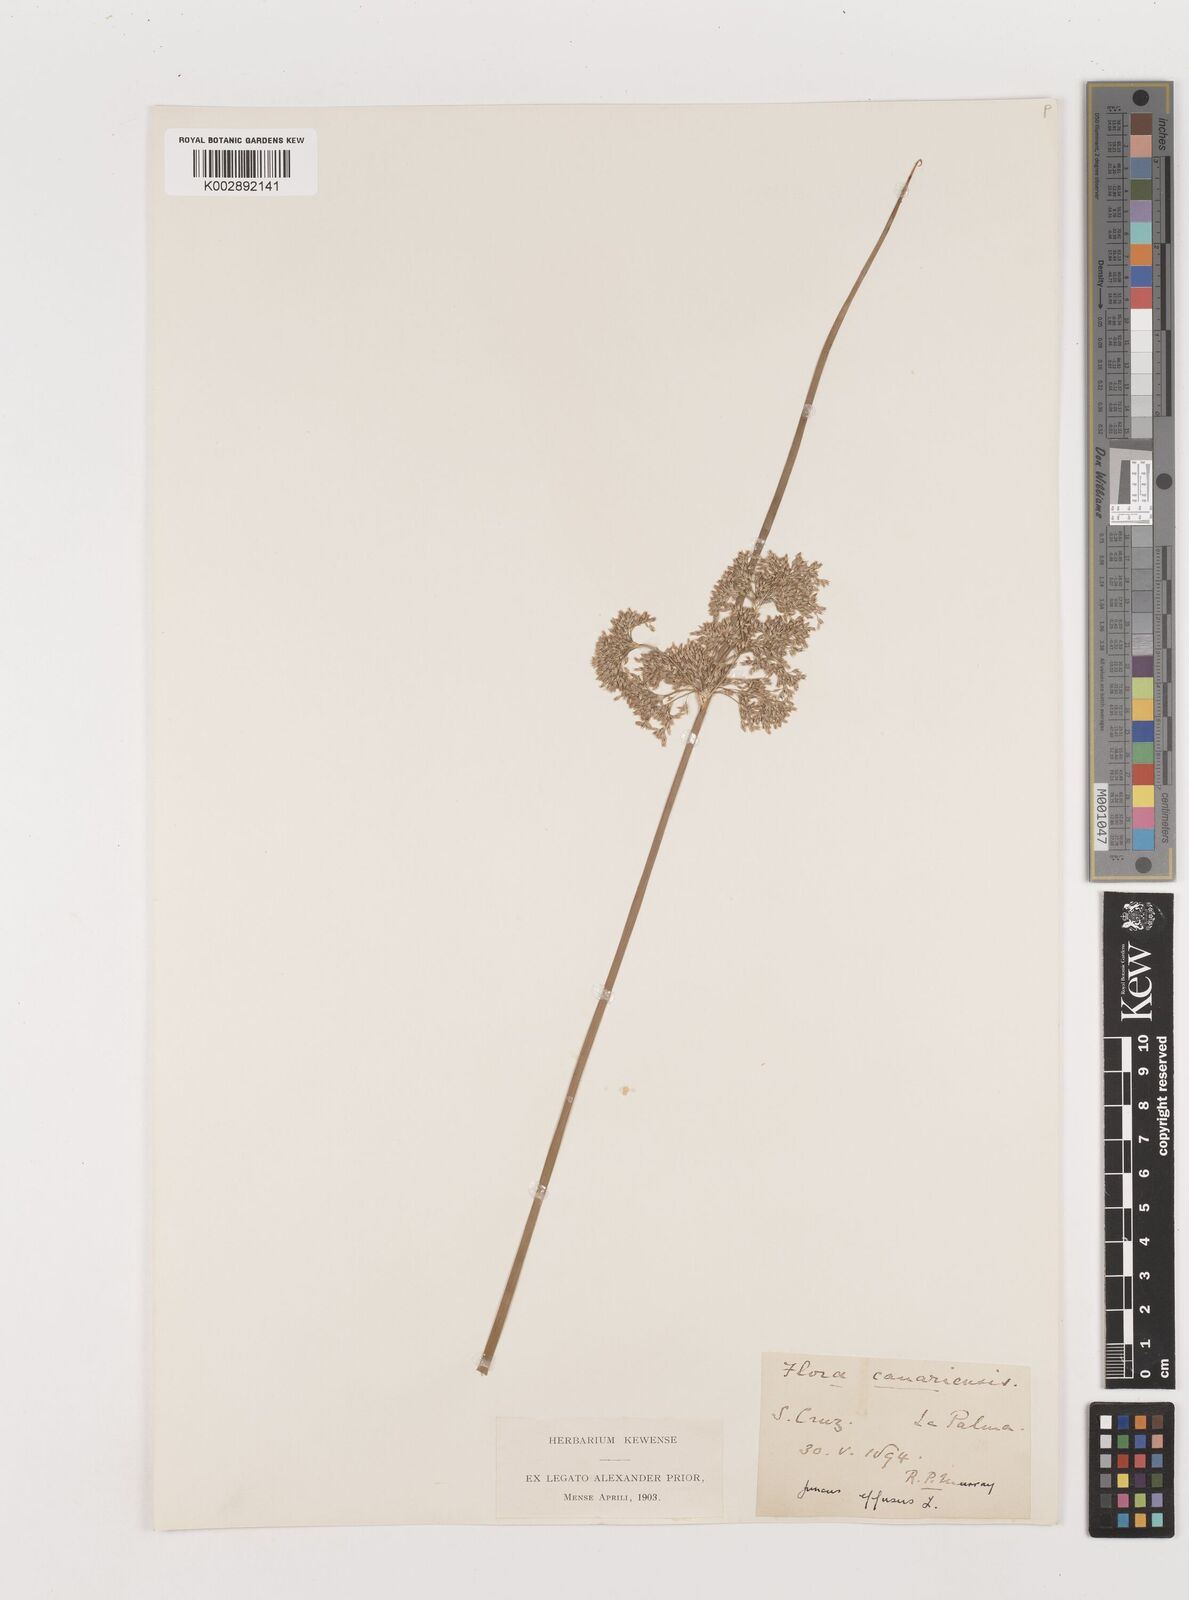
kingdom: Plantae
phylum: Tracheophyta
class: Liliopsida
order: Poales
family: Juncaceae
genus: Juncus
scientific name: Juncus effusus
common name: Soft rush
